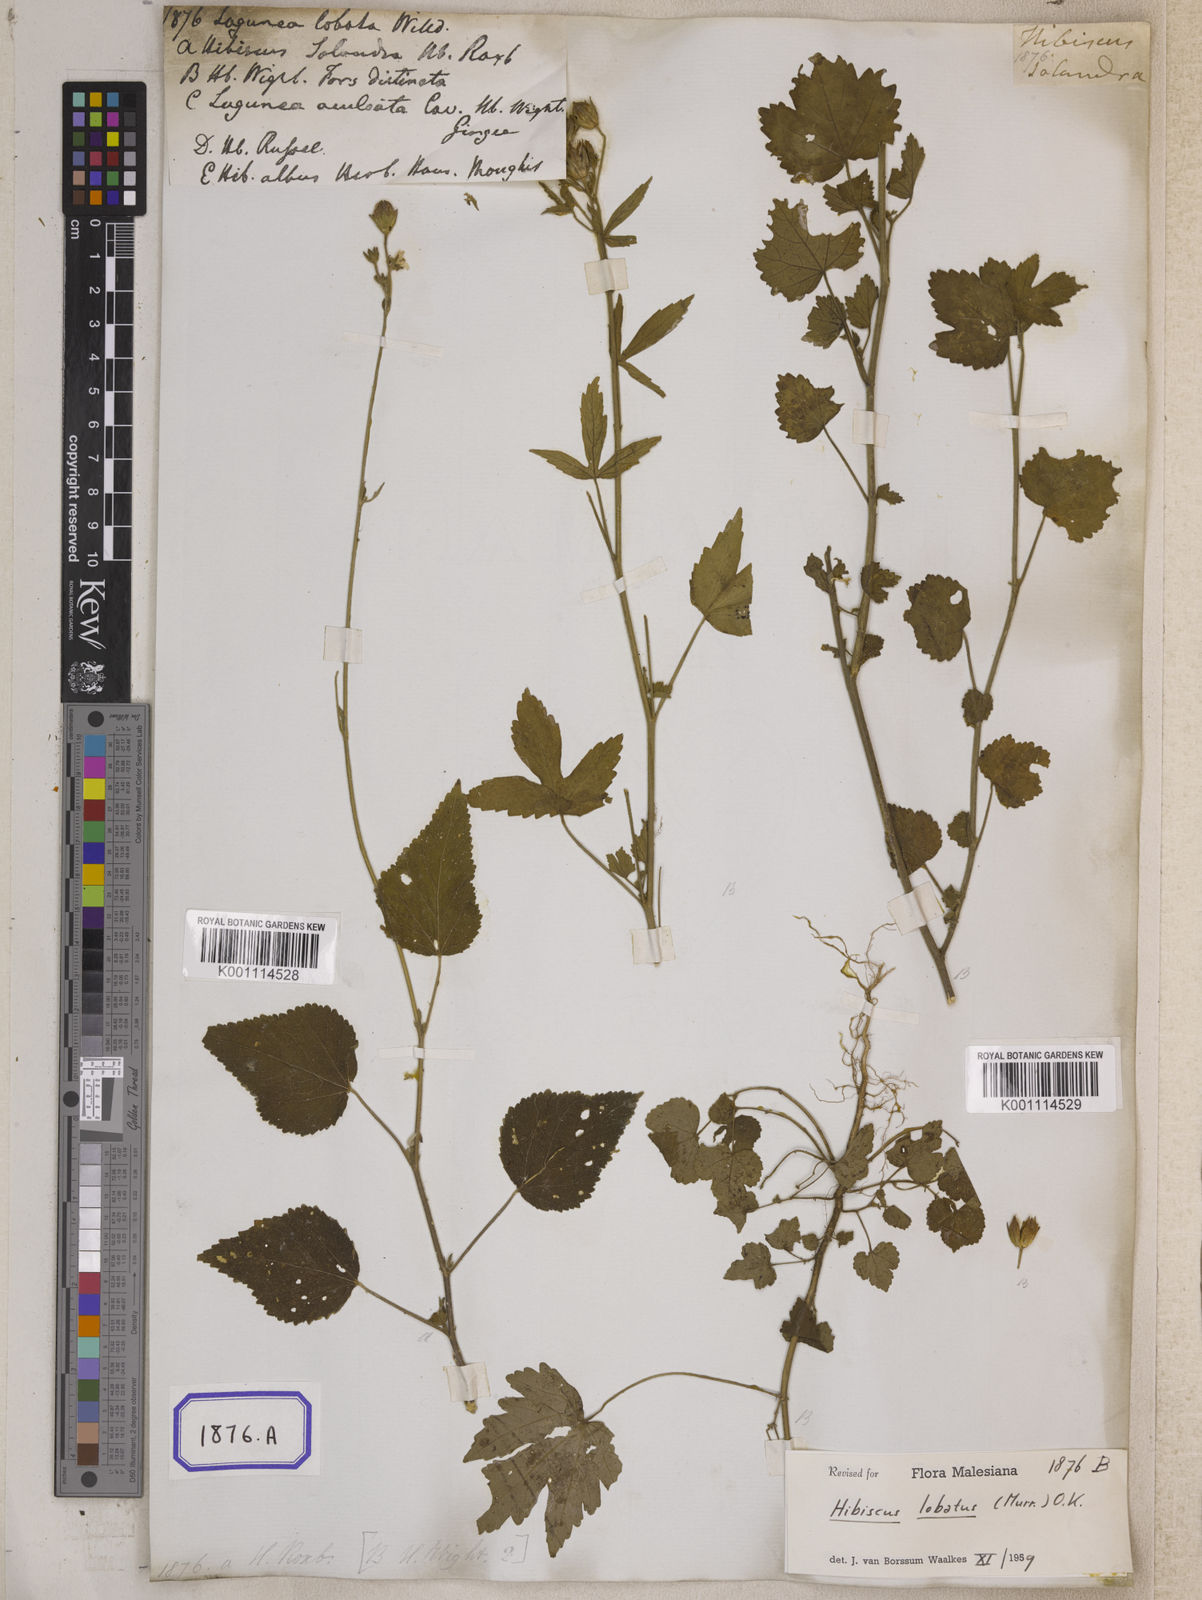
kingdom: Plantae
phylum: Tracheophyta
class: Magnoliopsida
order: Malvales
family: Malvaceae
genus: Hibiscus
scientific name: Hibiscus lobatus
